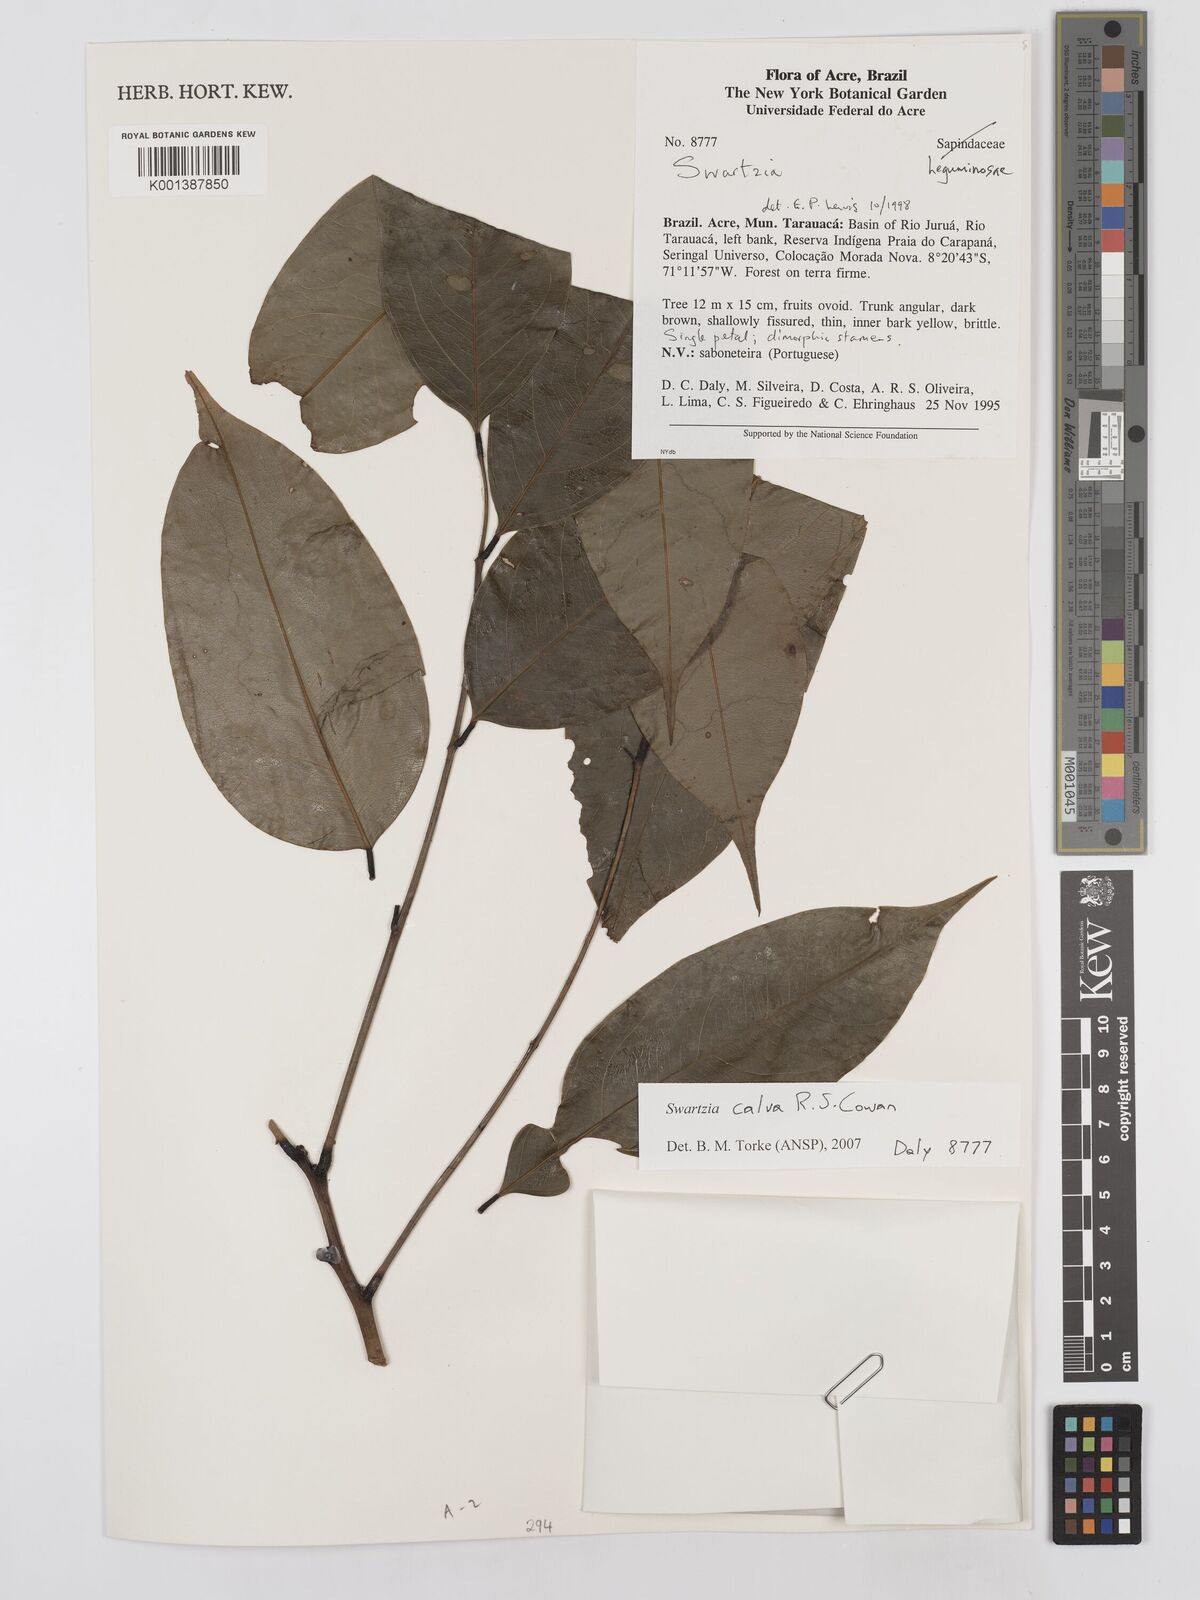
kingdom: Plantae
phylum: Tracheophyta
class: Magnoliopsida
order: Fabales
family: Fabaceae
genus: Swartzia
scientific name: Swartzia calva
